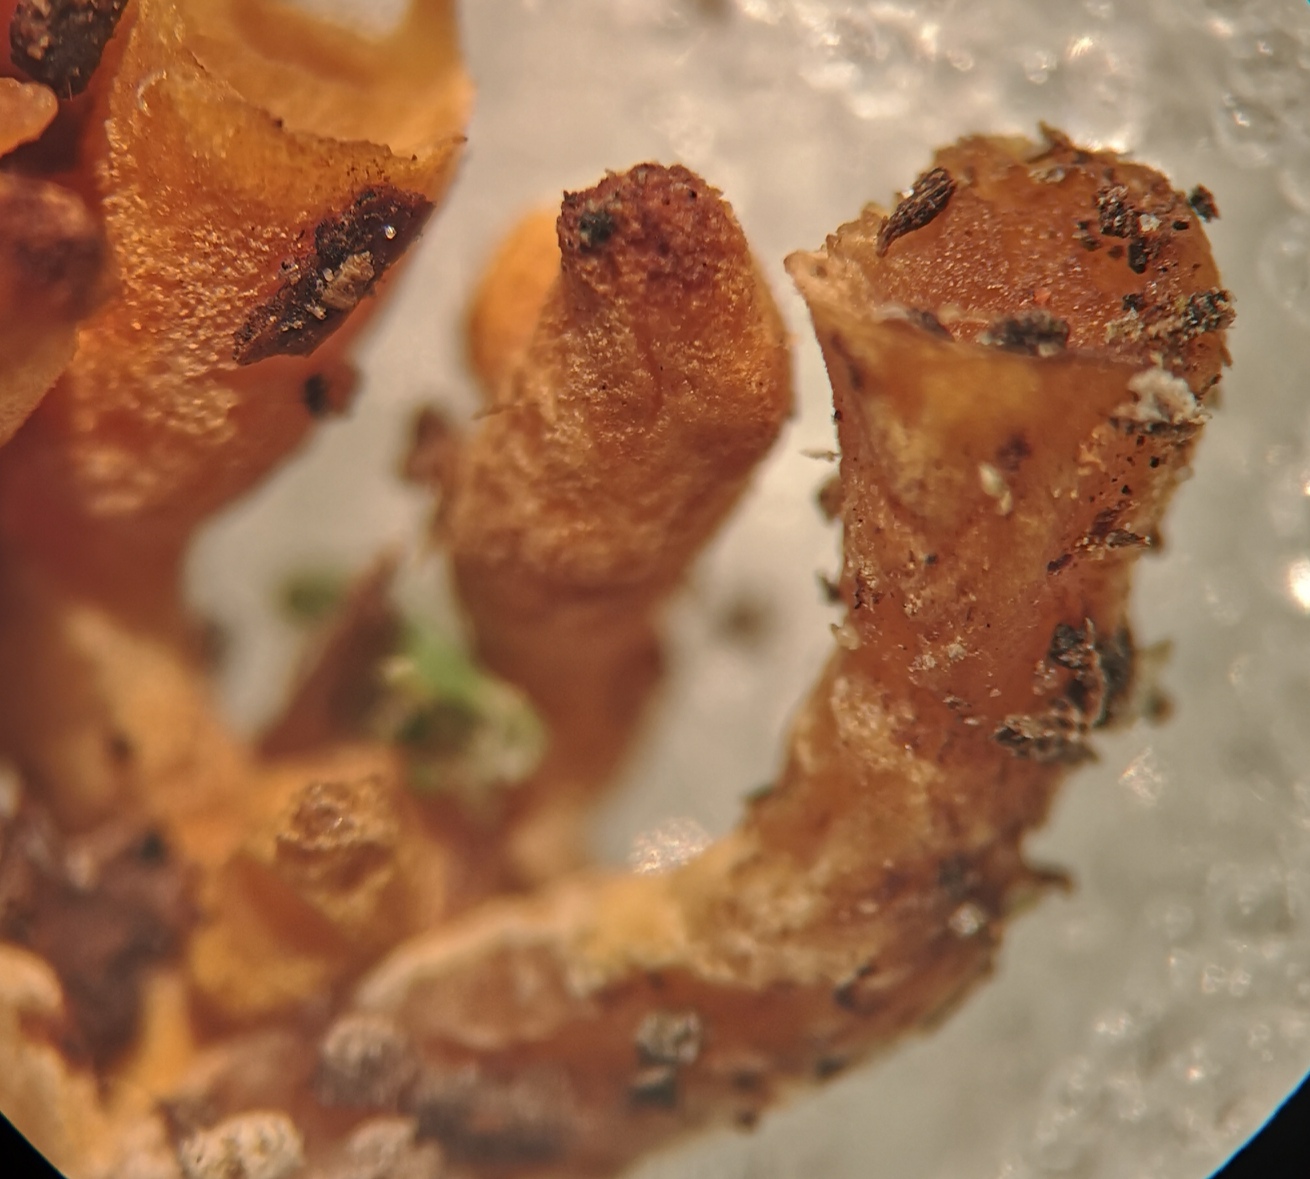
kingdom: Fungi
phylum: Basidiomycota
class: Agaricomycetes
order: Agaricales
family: Sarcomyxaceae
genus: Sarcomyxa
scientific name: Sarcomyxa serotina
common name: gummihat
